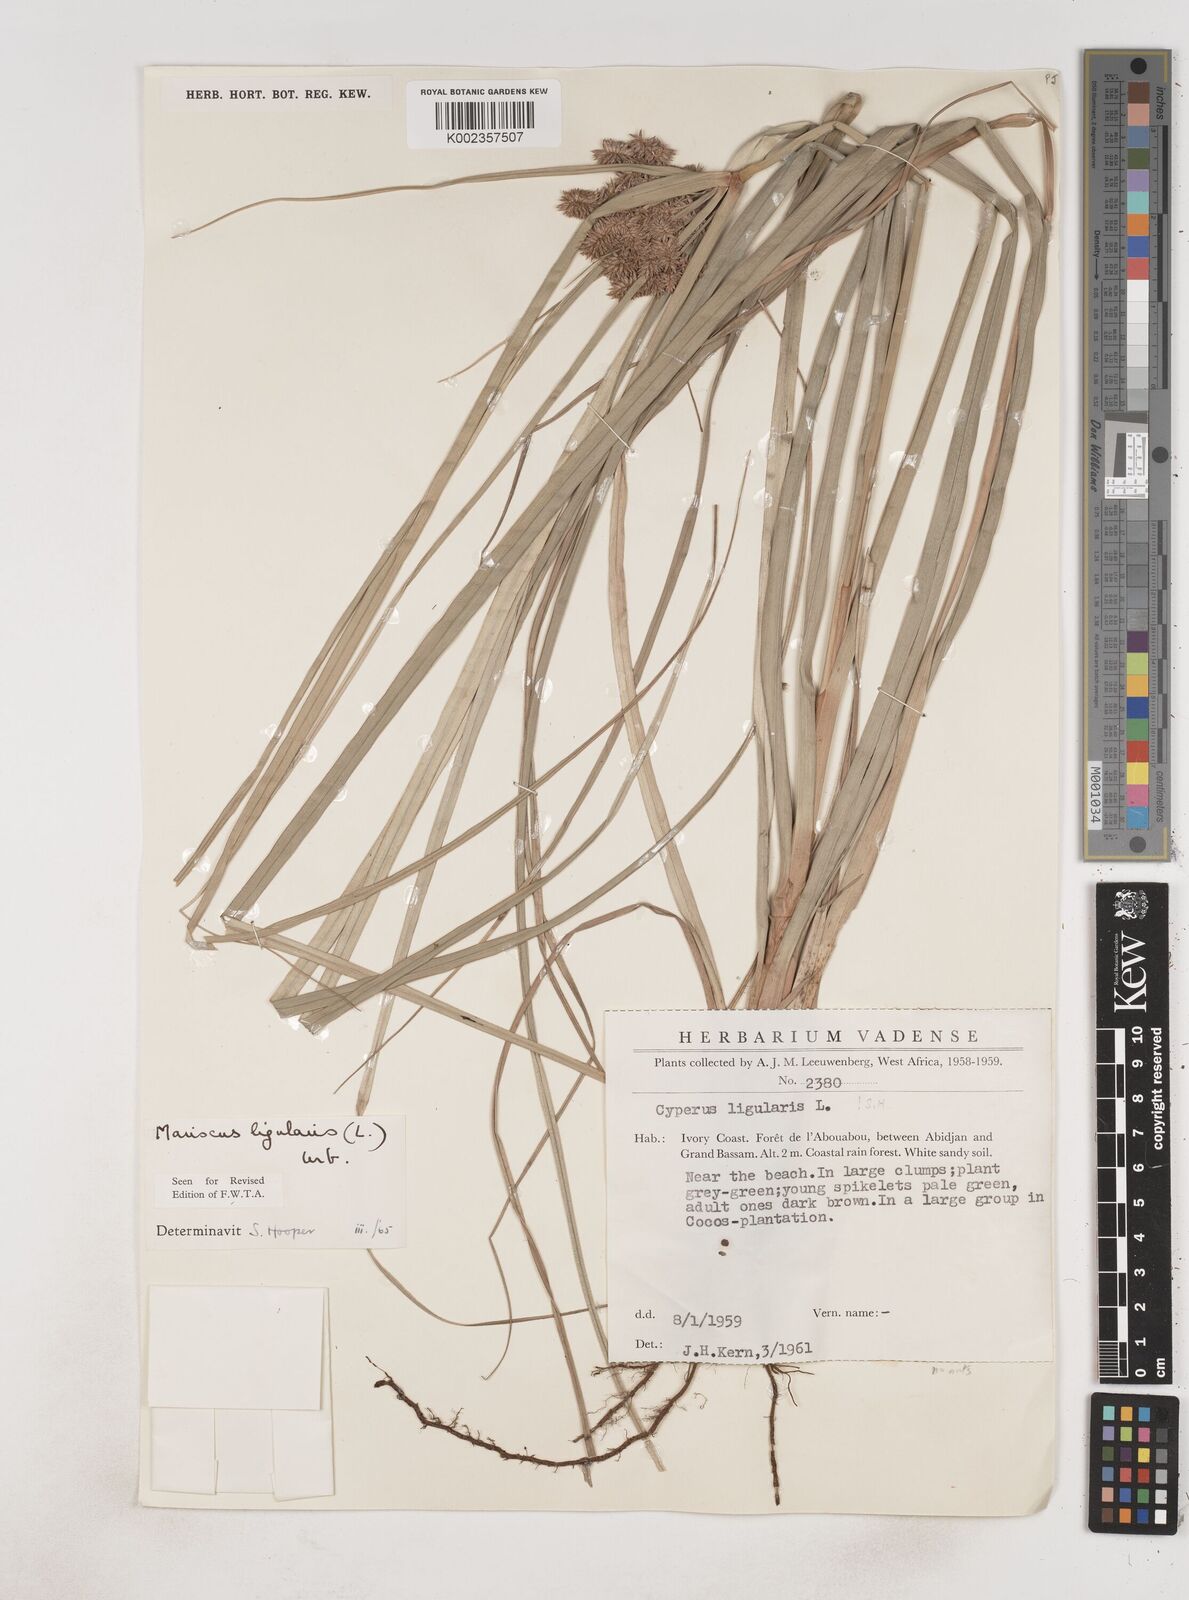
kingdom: Plantae
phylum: Tracheophyta
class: Liliopsida
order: Poales
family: Cyperaceae
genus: Cyperus
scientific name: Cyperus ligularis
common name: Swamp flat sedge
